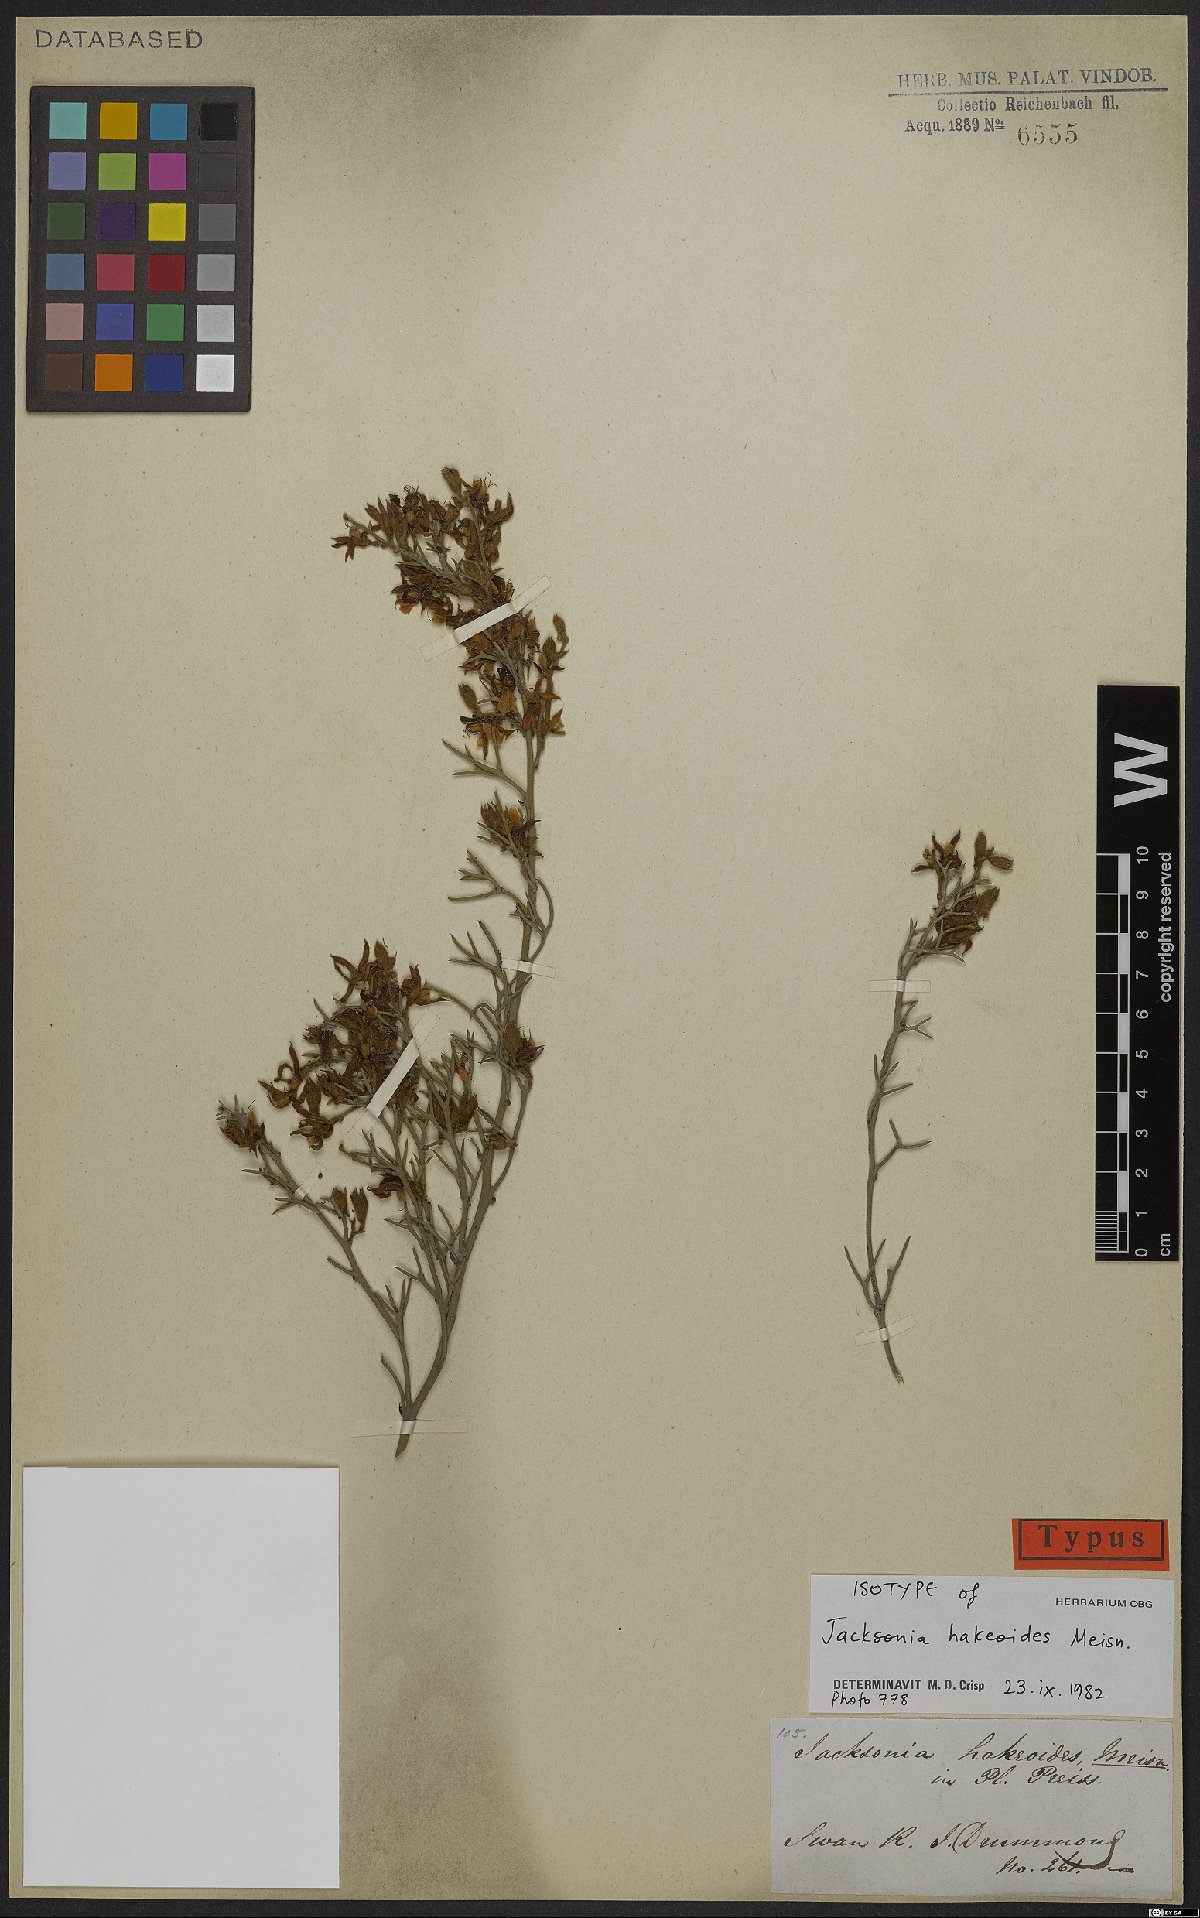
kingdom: Plantae
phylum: Tracheophyta
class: Magnoliopsida
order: Fabales
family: Fabaceae
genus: Jacksonia
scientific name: Jacksonia hakeoides
